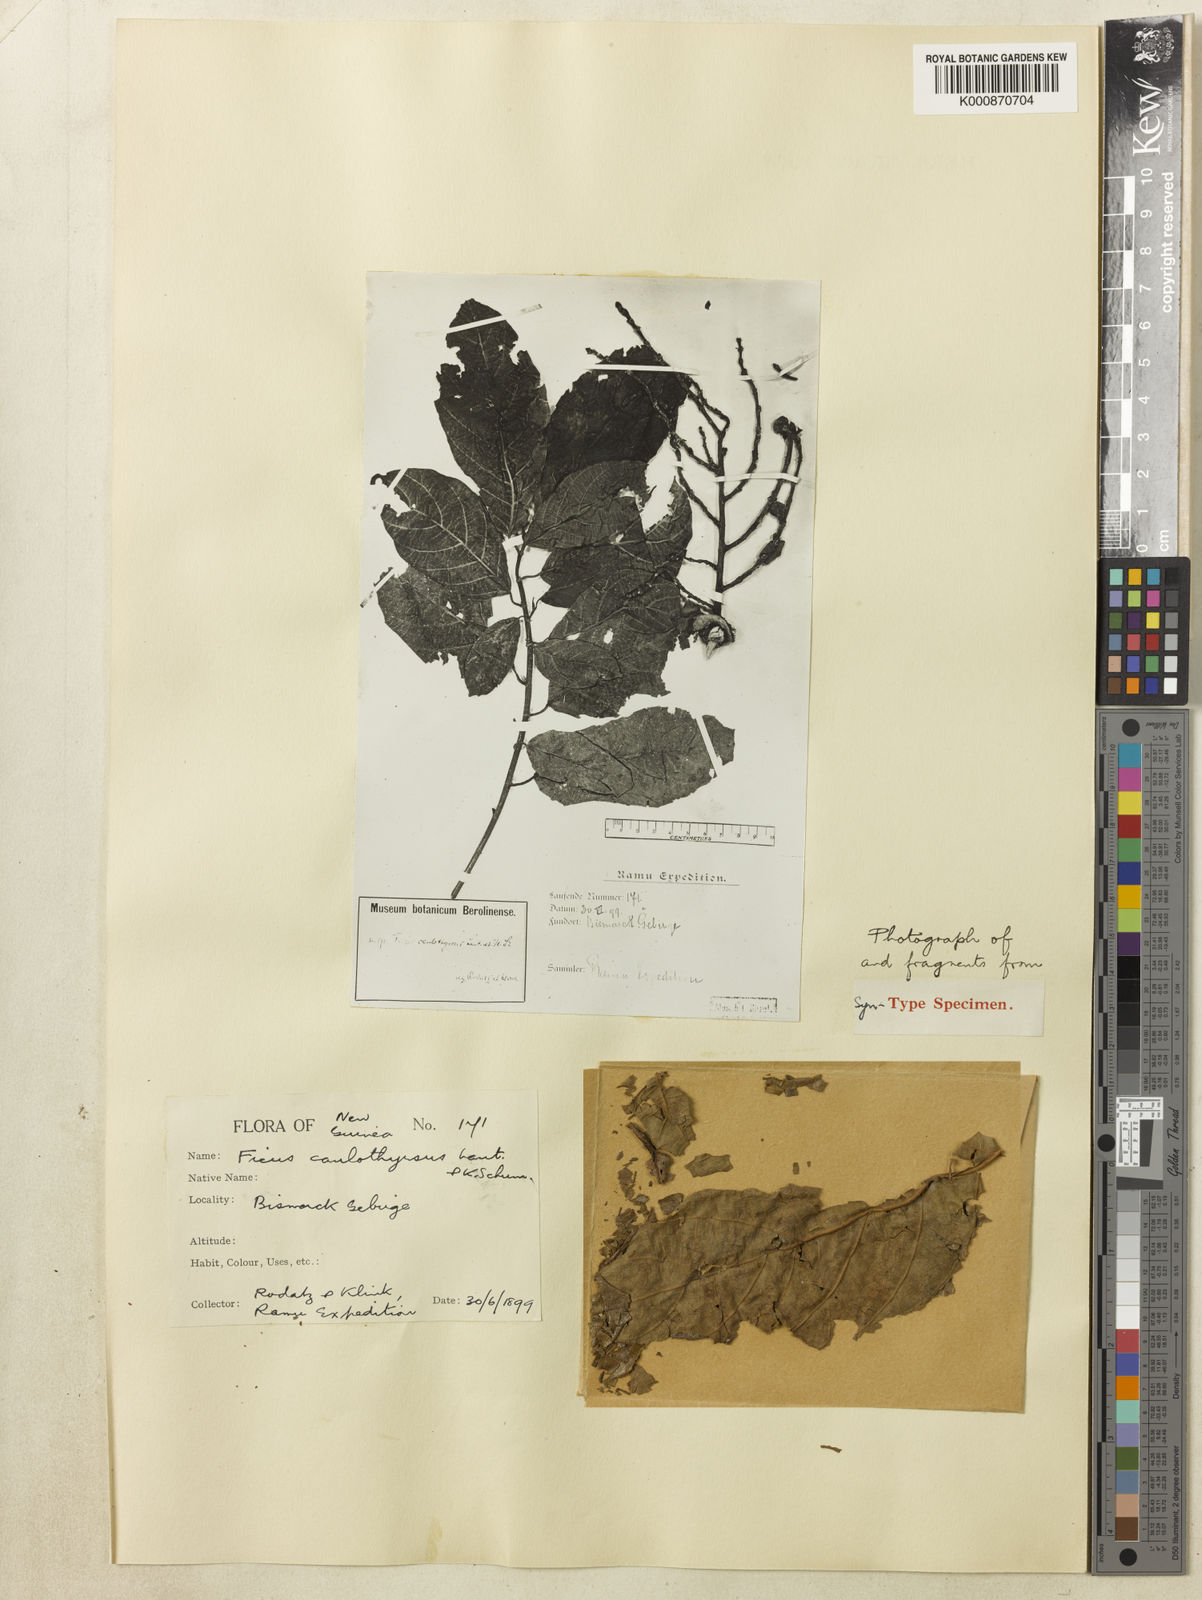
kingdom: Plantae
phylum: Tracheophyta
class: Magnoliopsida
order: Rosales
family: Moraceae
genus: Ficus
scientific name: Ficus congesta
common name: Cluster fig
